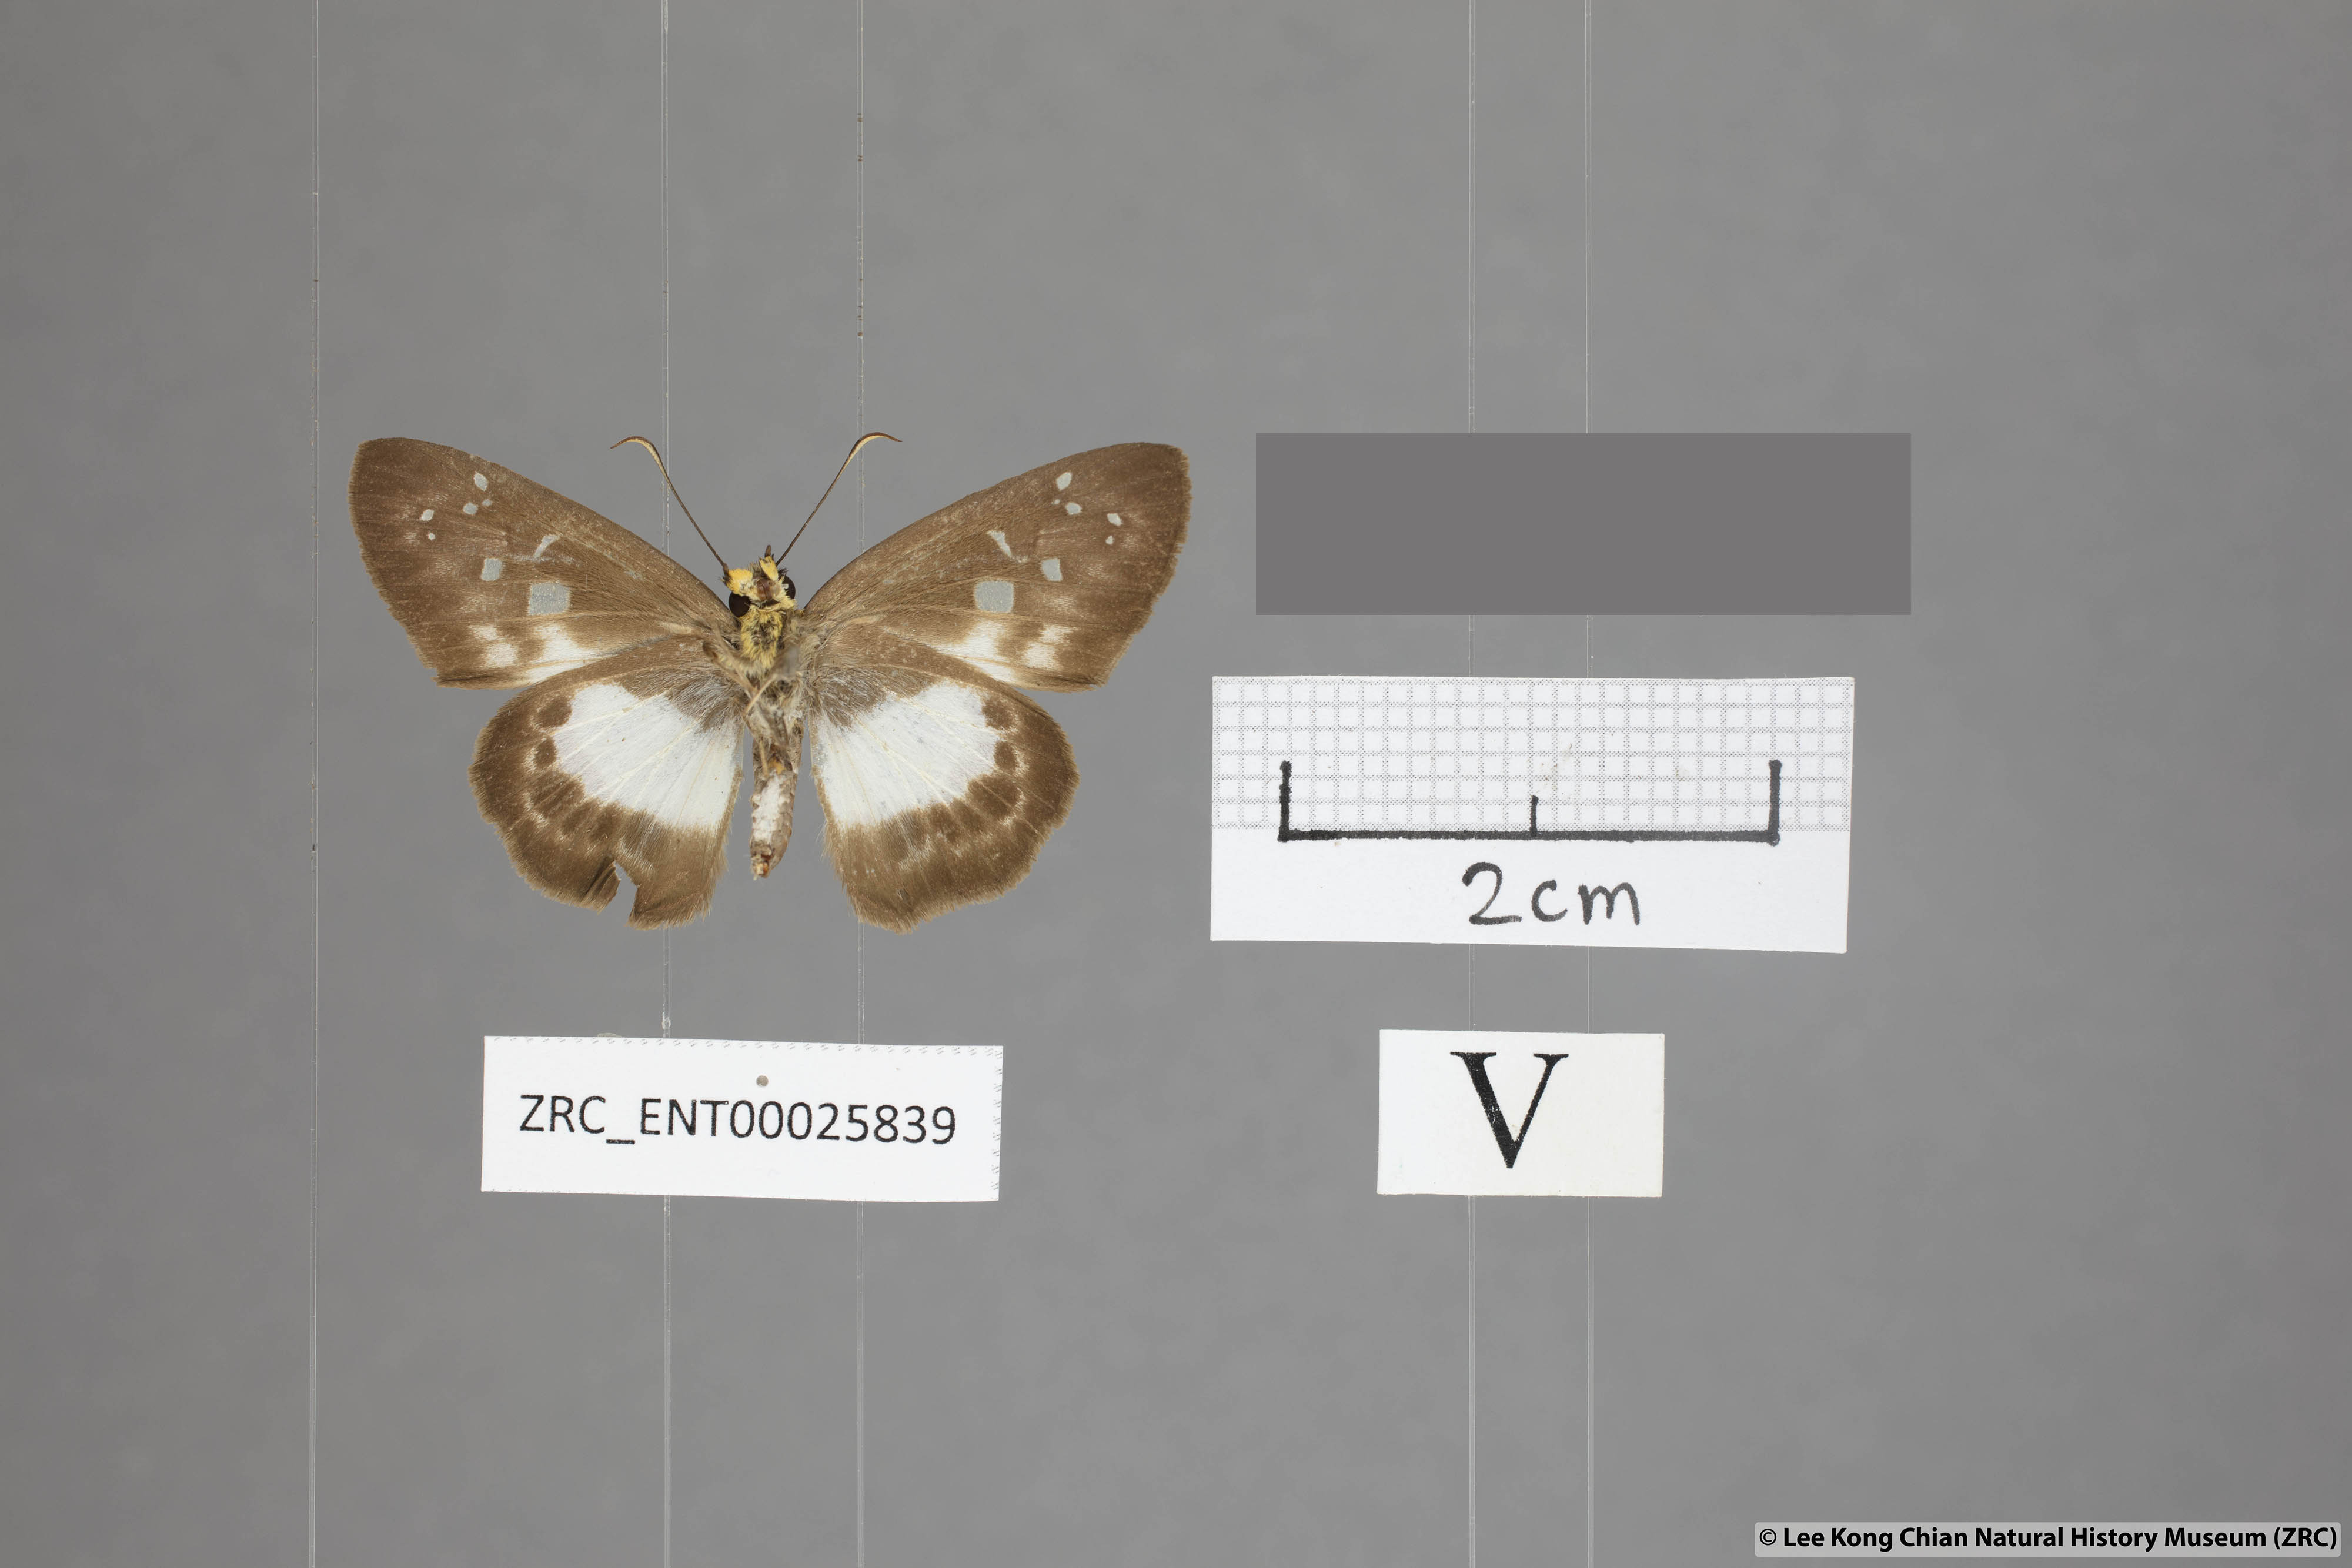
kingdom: Animalia
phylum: Arthropoda
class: Insecta
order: Lepidoptera
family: Hesperiidae
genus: Daimio
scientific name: Daimio
